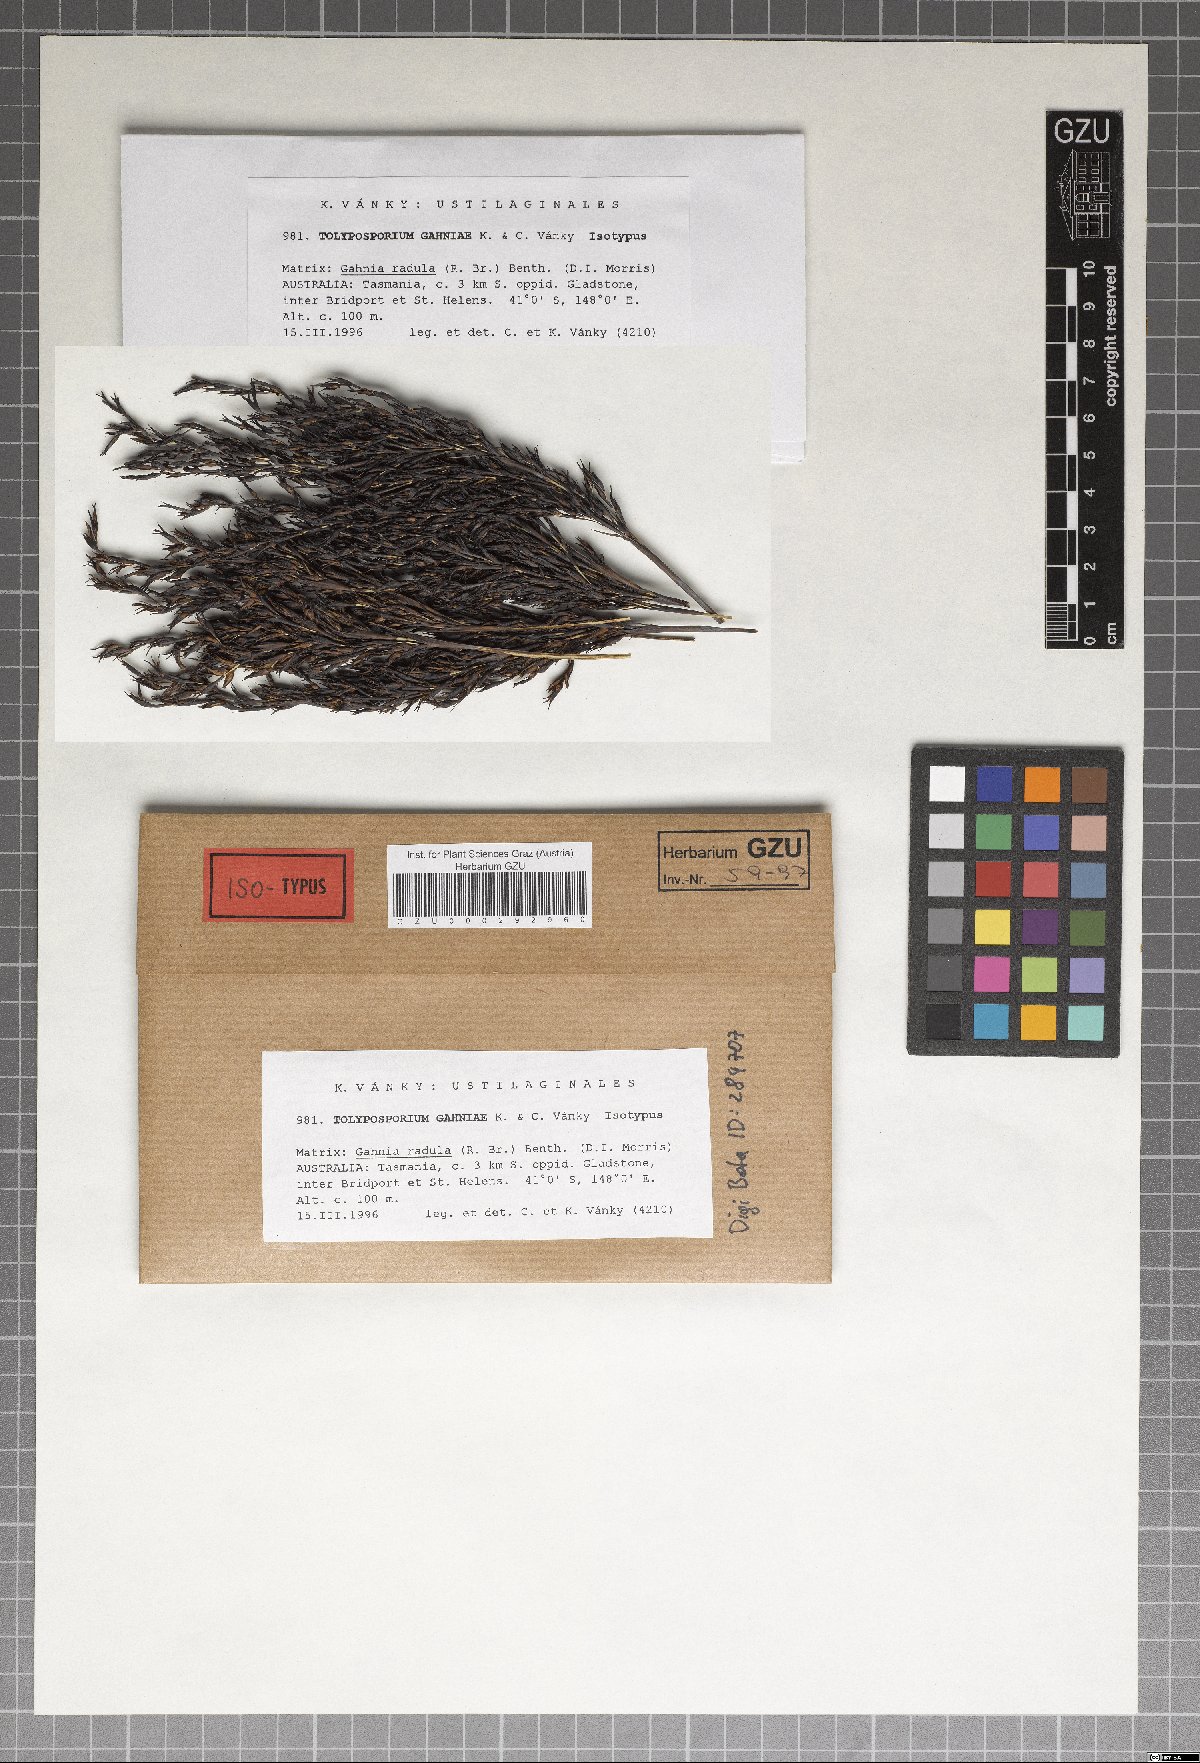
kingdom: Fungi
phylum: Basidiomycota
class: Ustilaginomycetes
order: Ustilaginales
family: Anthracoideaceae
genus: Moreaua
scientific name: Moreaua gahniae
